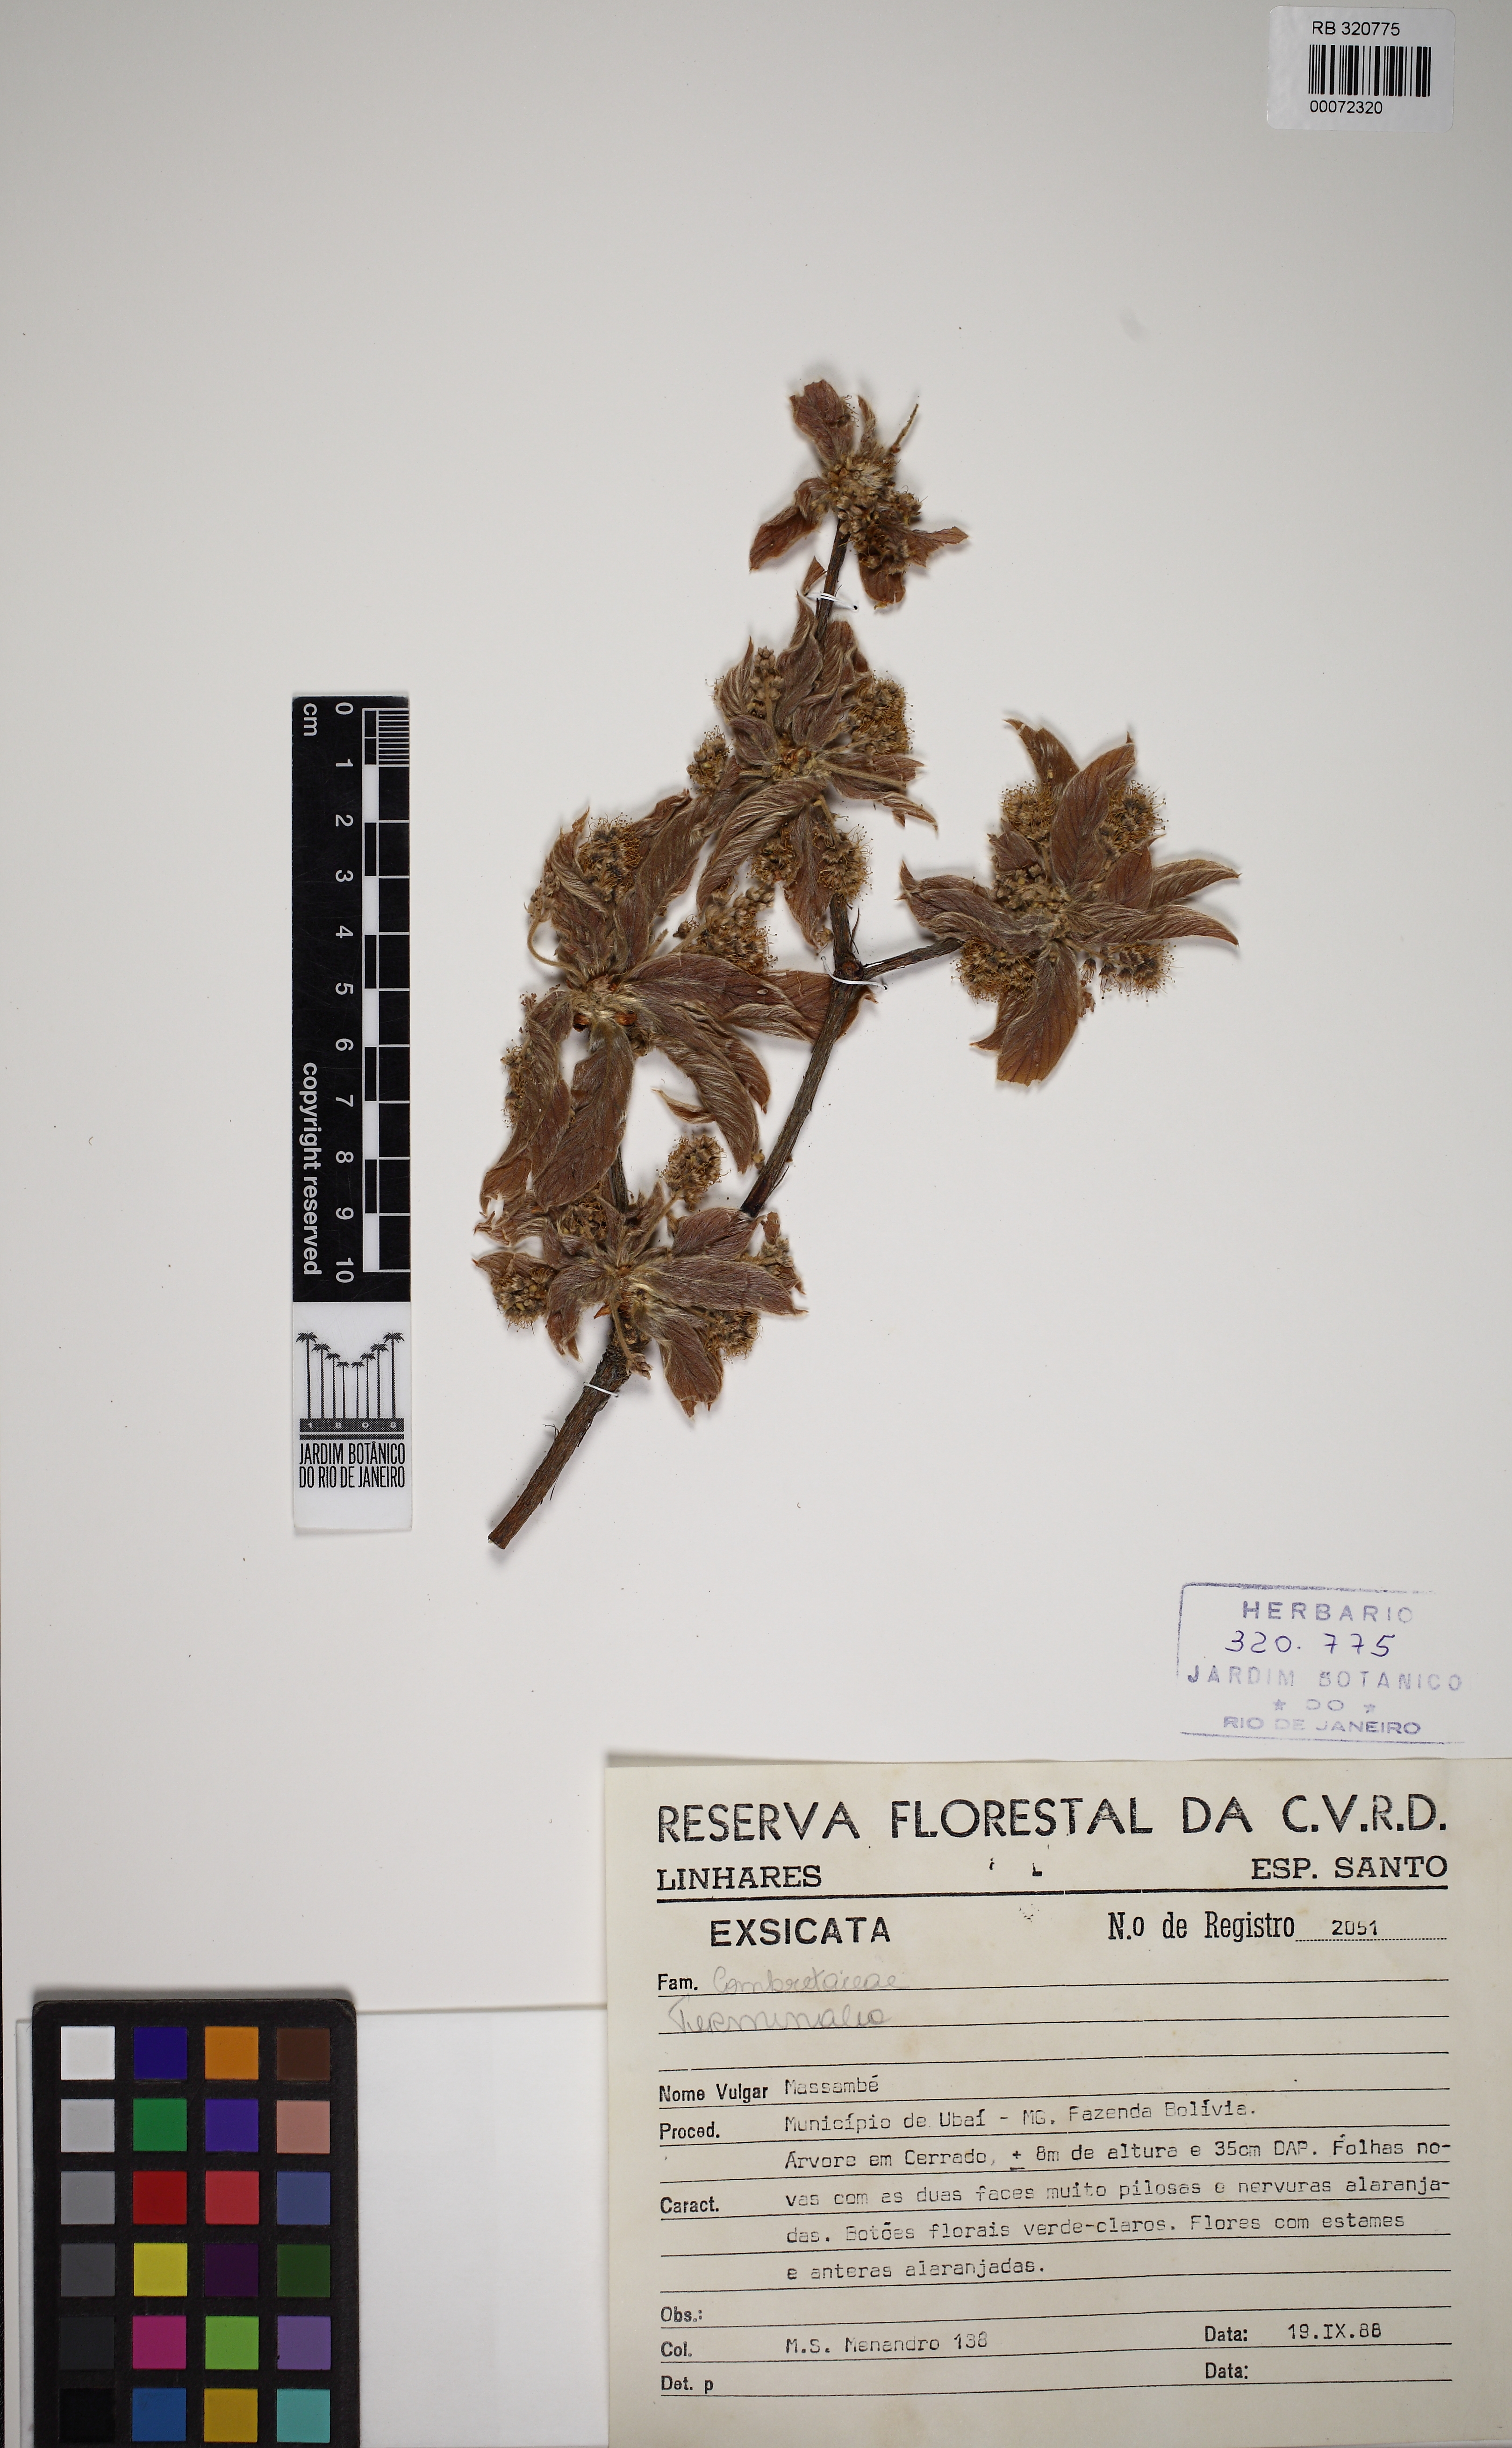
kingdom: Plantae
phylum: Tracheophyta
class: Magnoliopsida
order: Myrtales
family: Combretaceae
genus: Terminalia
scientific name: Terminalia fagifolia
